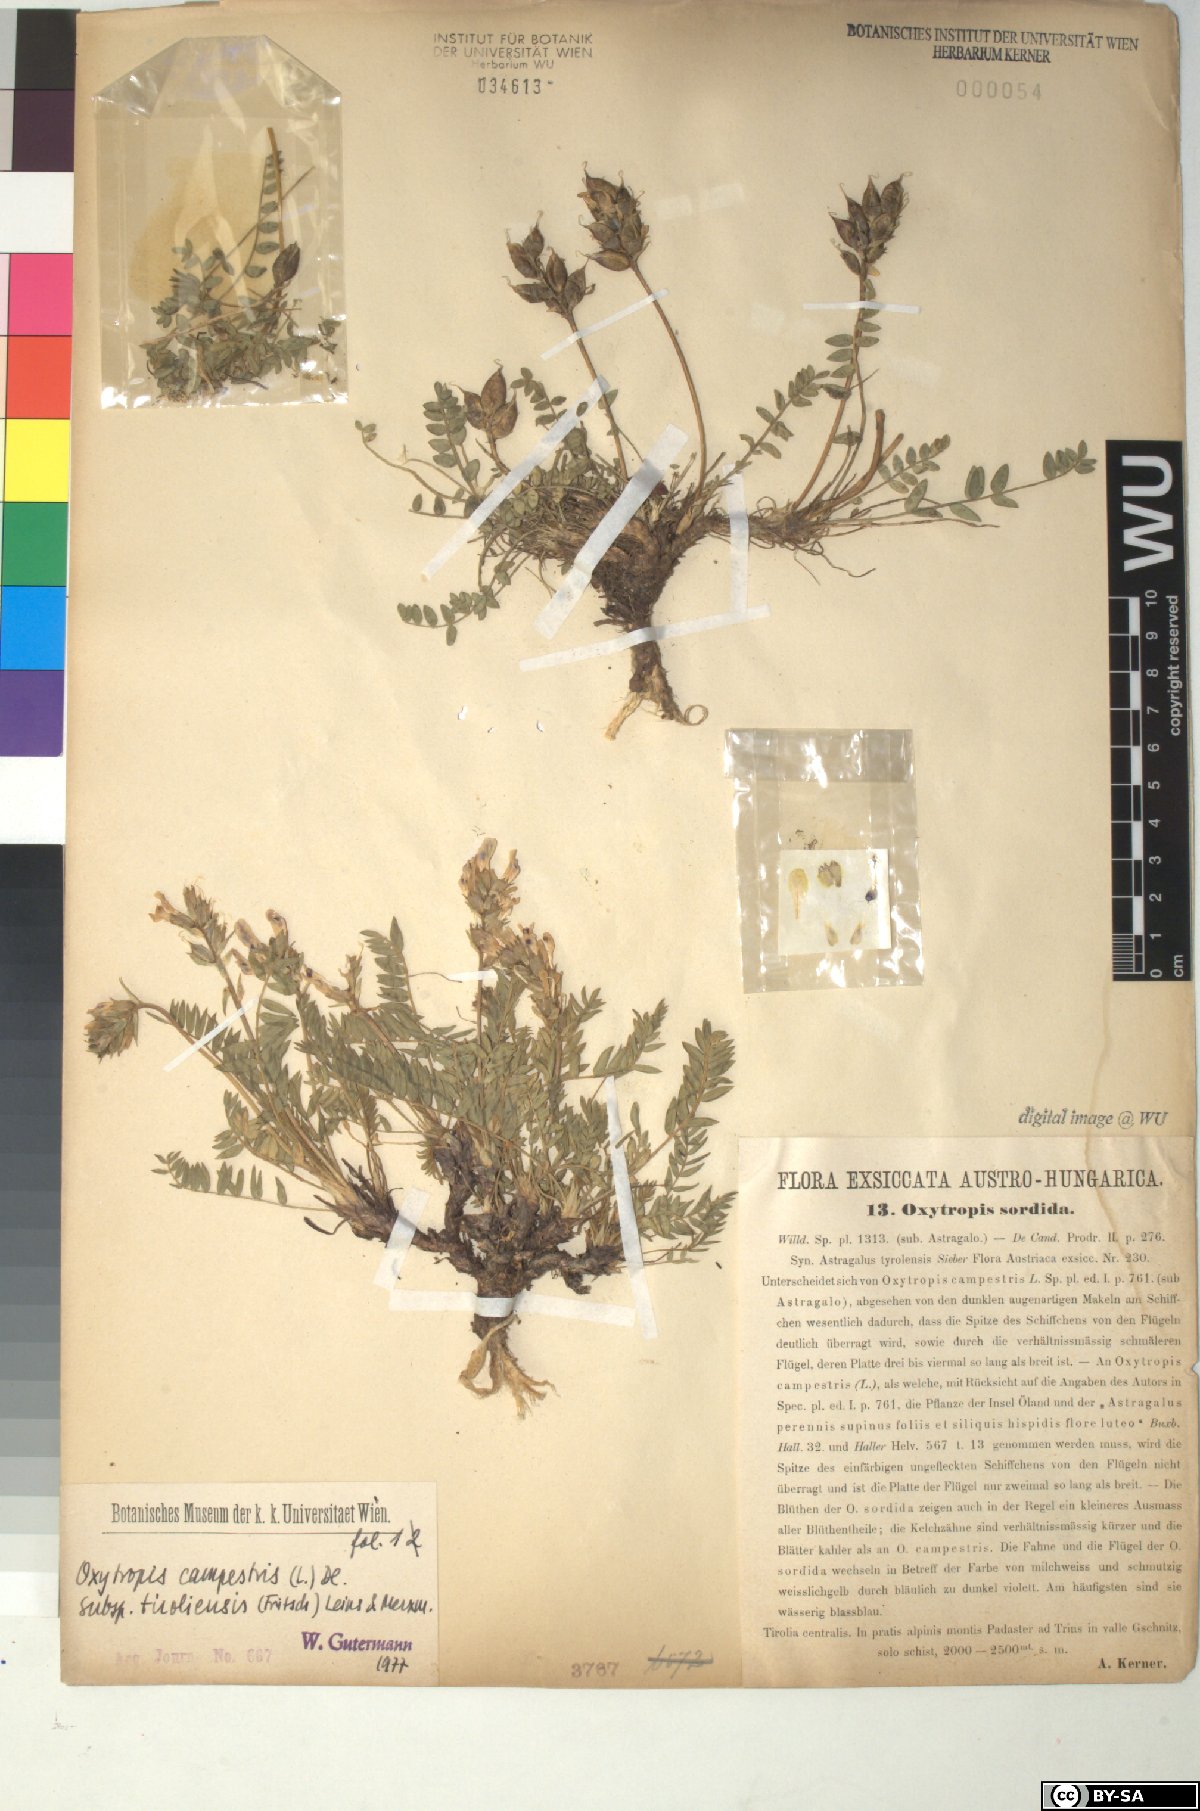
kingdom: Plantae
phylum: Tracheophyta
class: Magnoliopsida
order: Fabales
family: Fabaceae
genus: Oxytropis
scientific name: Oxytropis campestris
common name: Field locoweed
